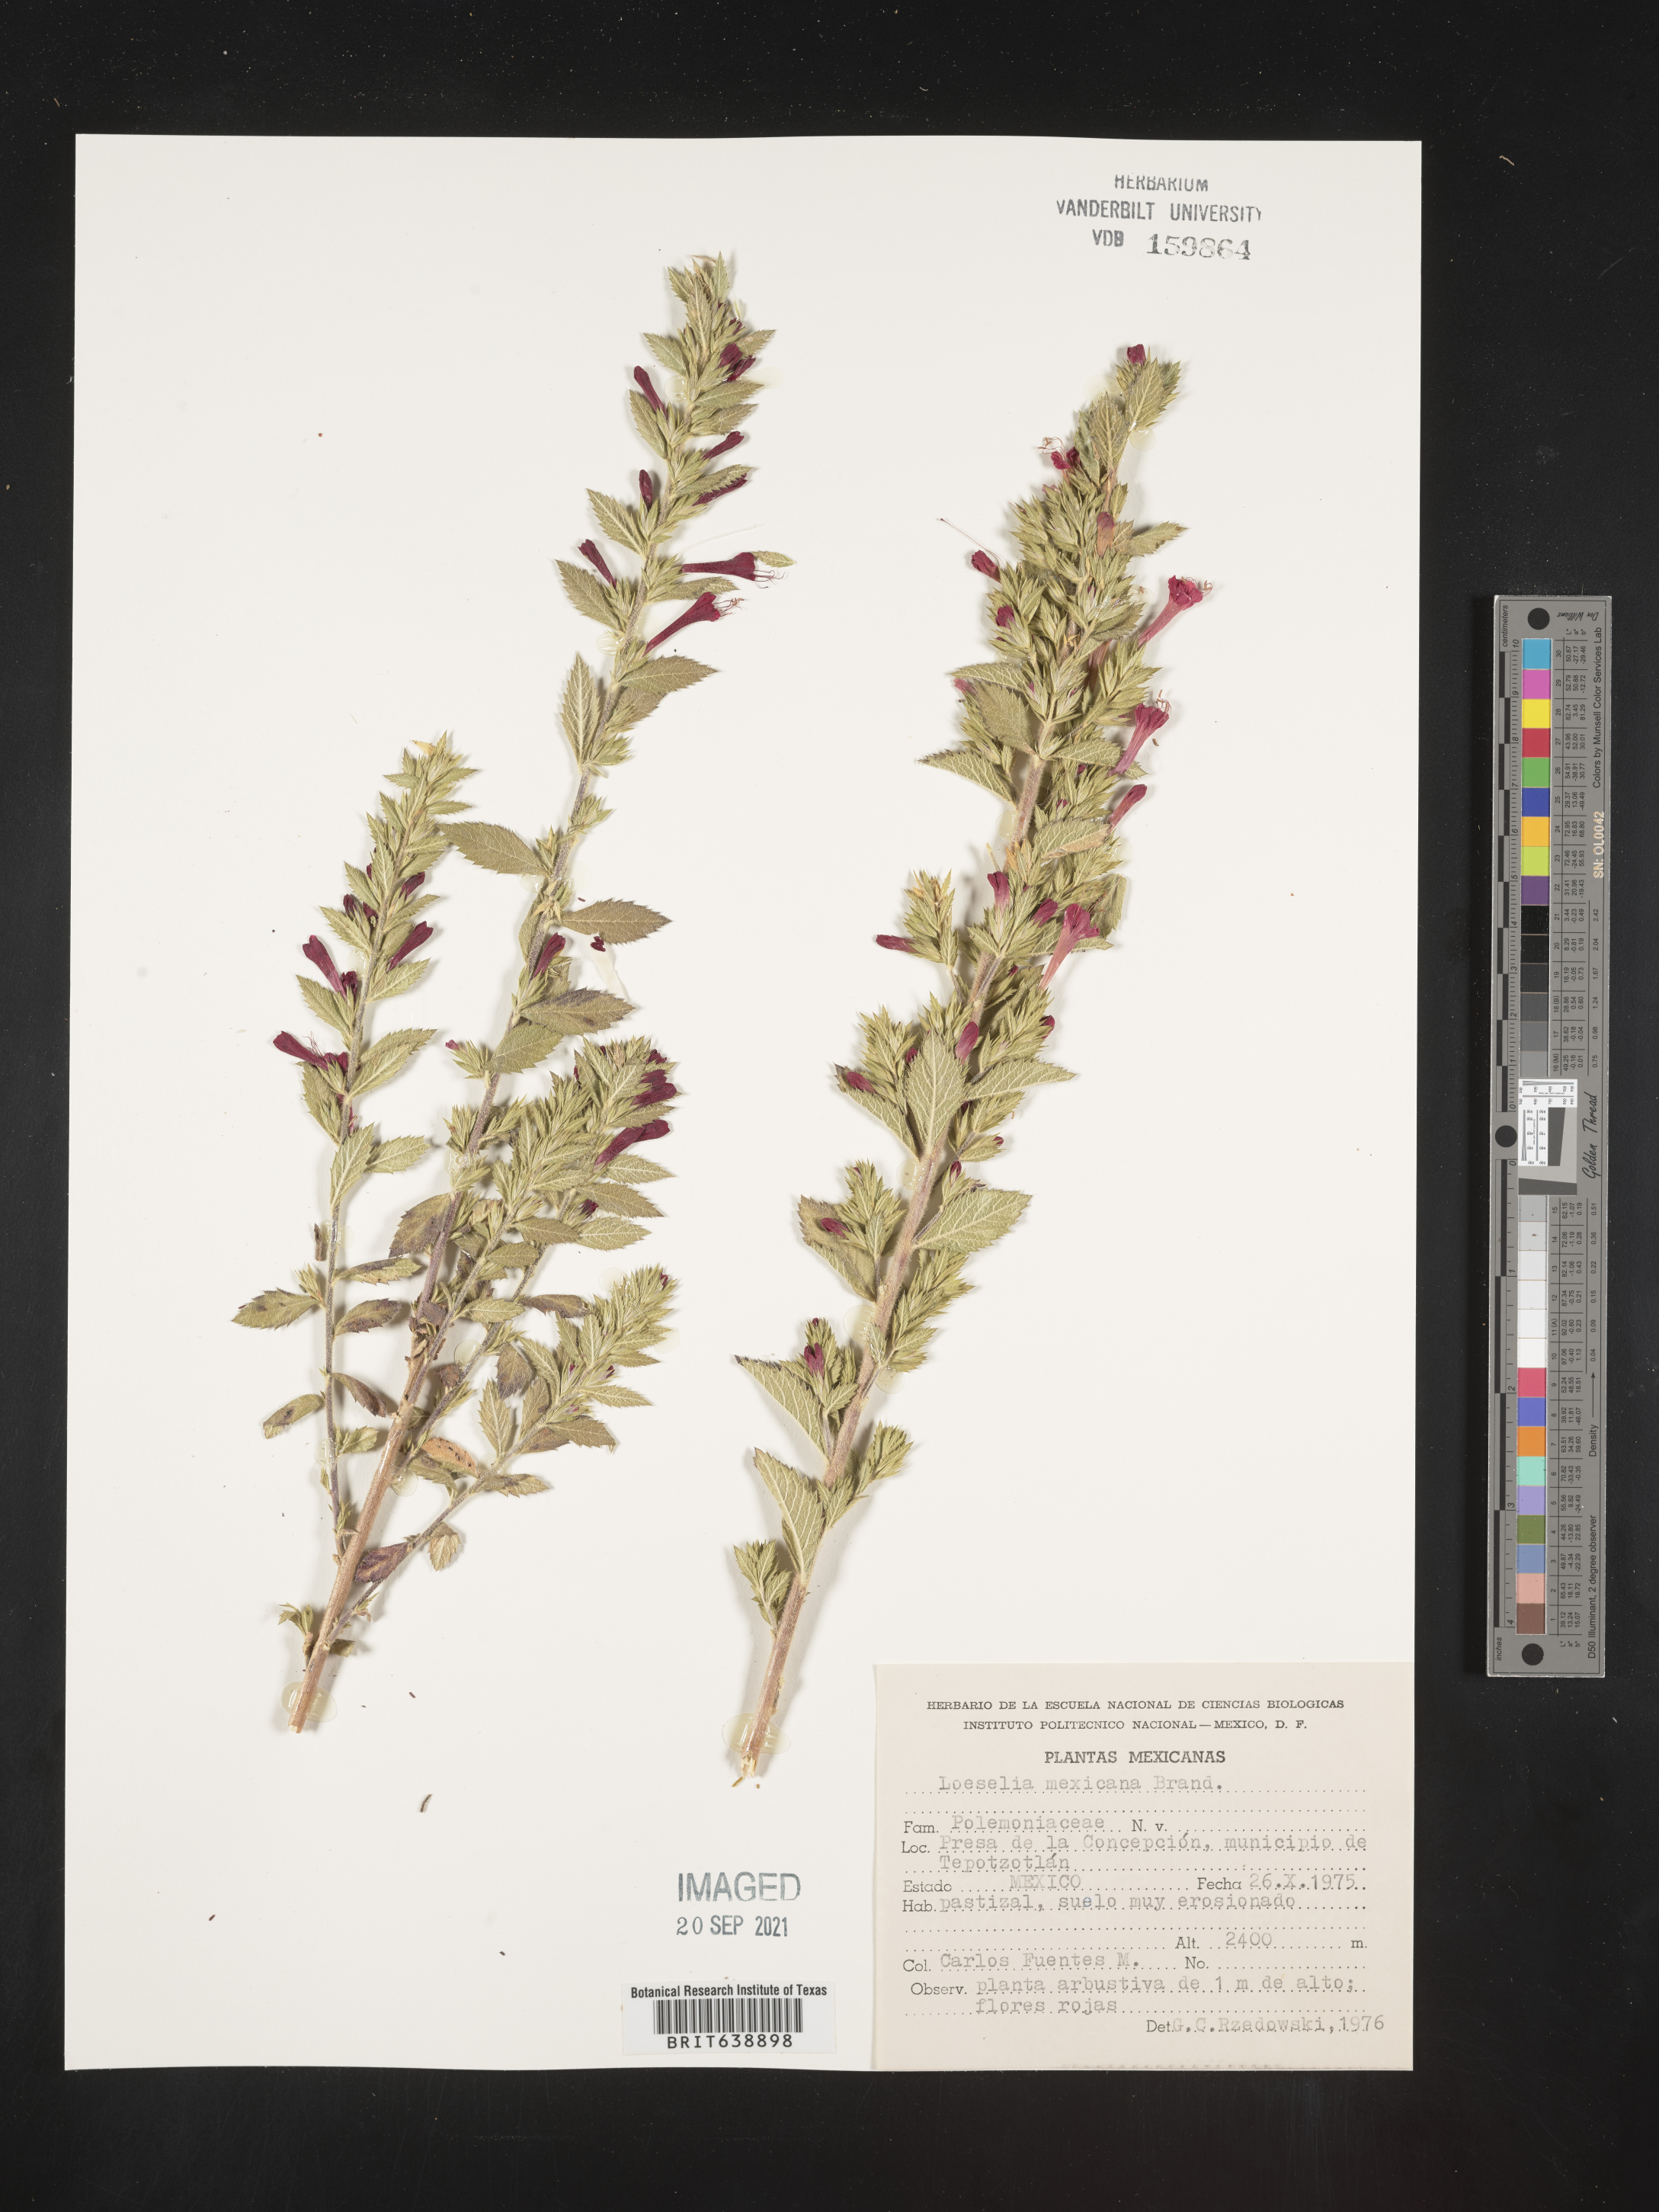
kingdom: Plantae
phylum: Tracheophyta
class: Magnoliopsida
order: Ericales
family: Polemoniaceae
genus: Loeselia
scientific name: Loeselia
